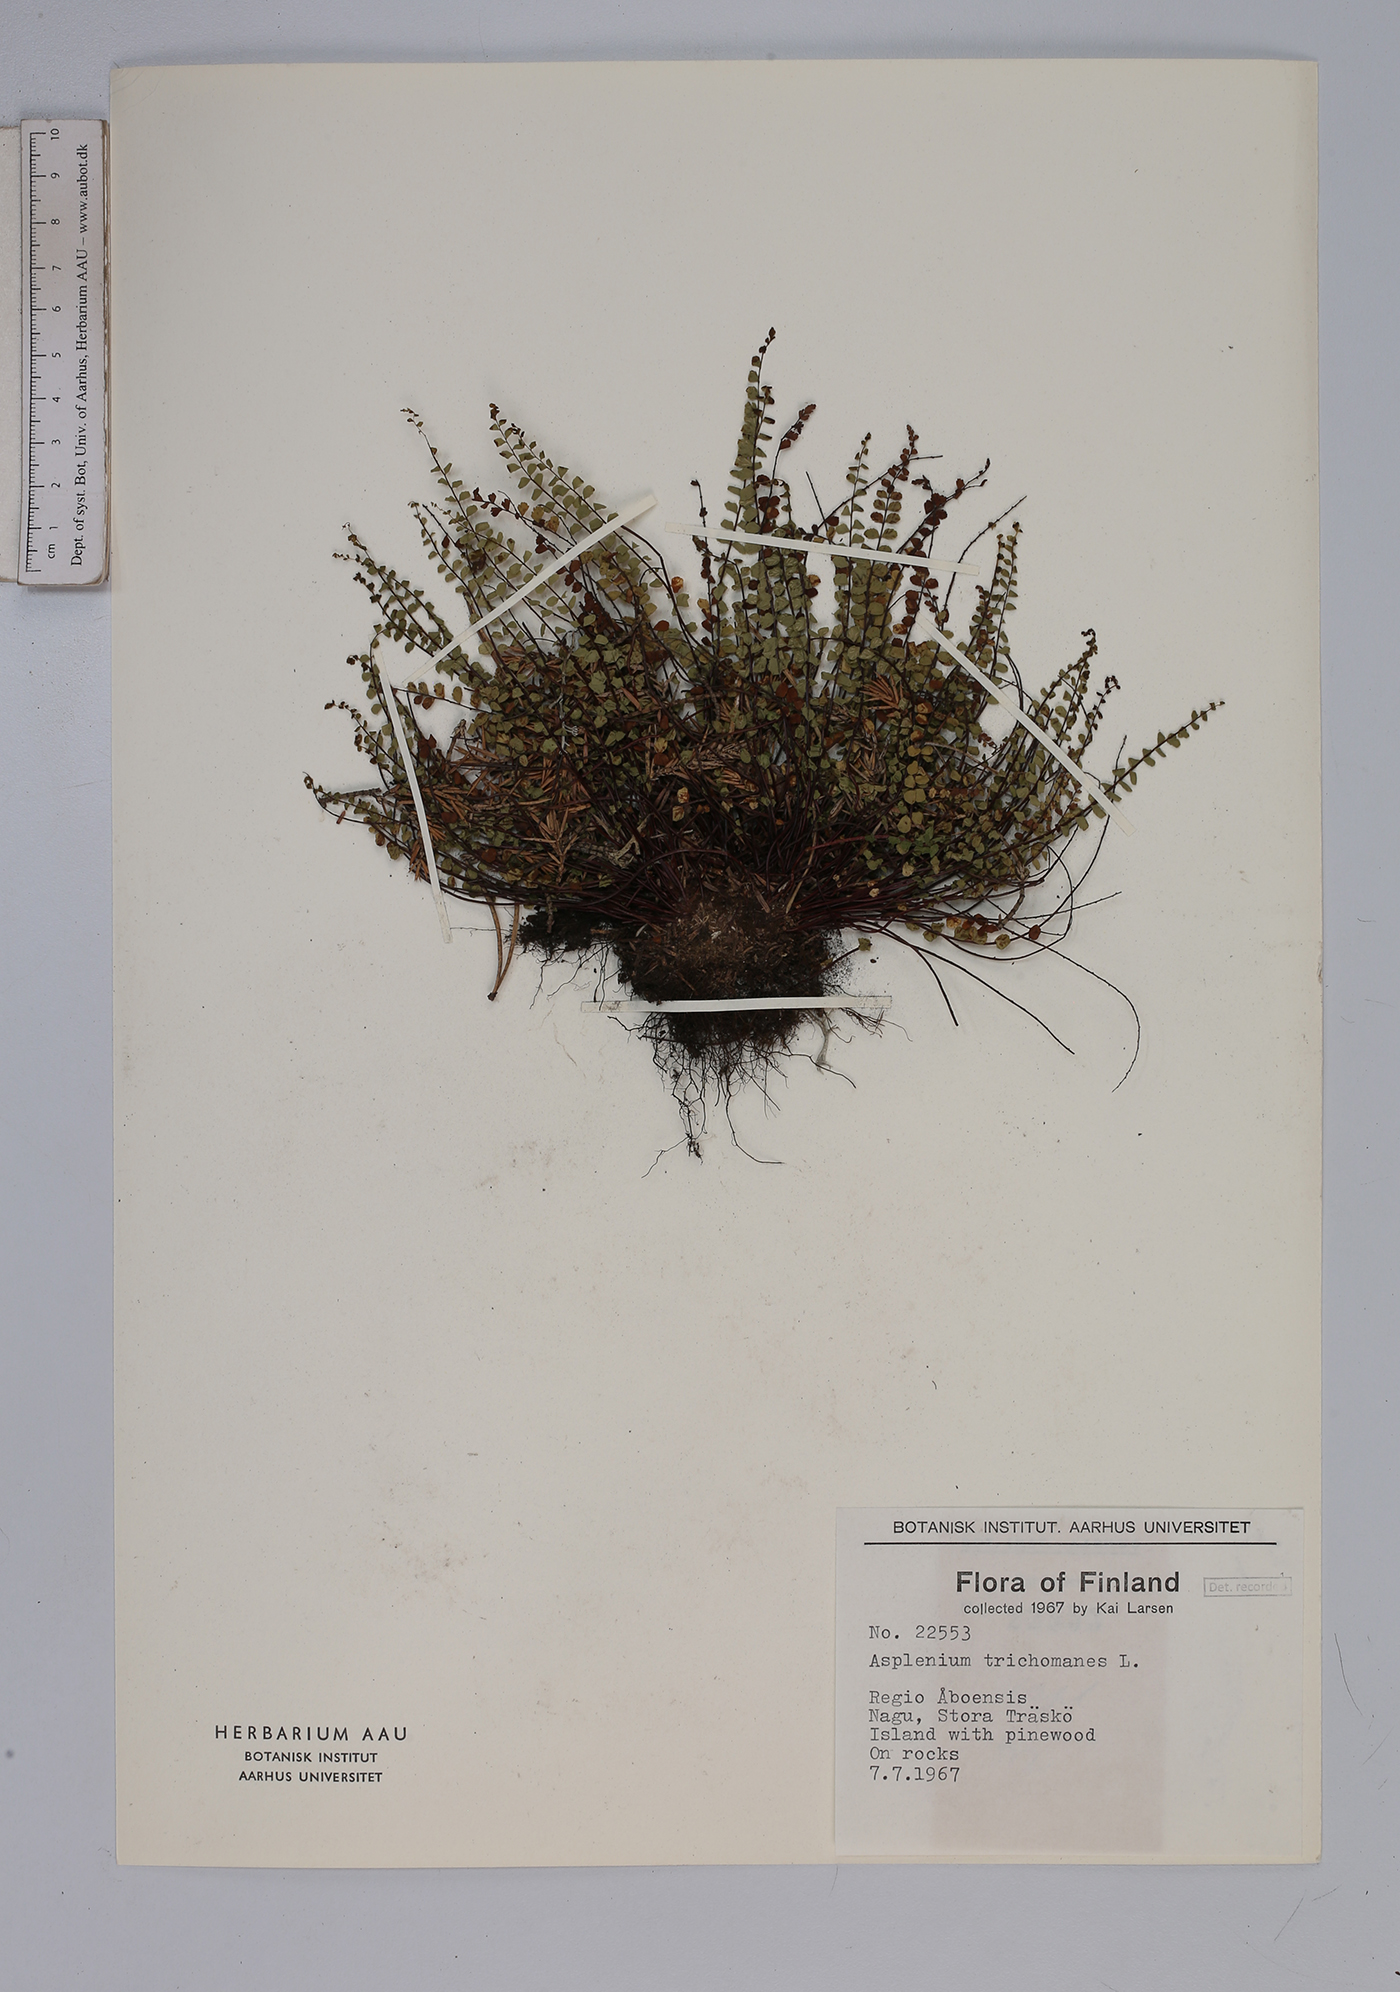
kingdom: Plantae
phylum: Tracheophyta
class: Polypodiopsida
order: Polypodiales
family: Aspleniaceae
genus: Asplenium
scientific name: Asplenium trichomanes
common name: Maidenhair spleenwort
